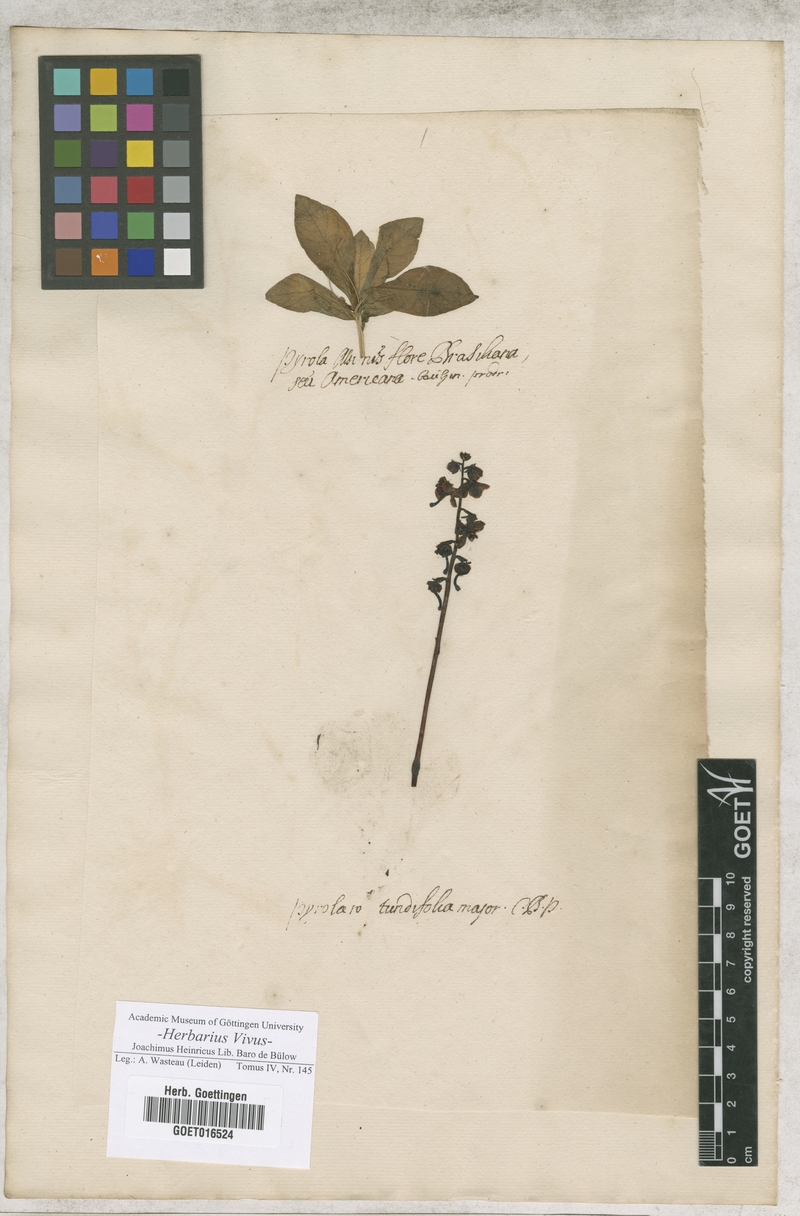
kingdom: Plantae
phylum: Tracheophyta
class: Magnoliopsida
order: Ericales
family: Ericaceae
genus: Pyrola
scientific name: Pyrola rotundifolia
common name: Round-leaved wintergreen
